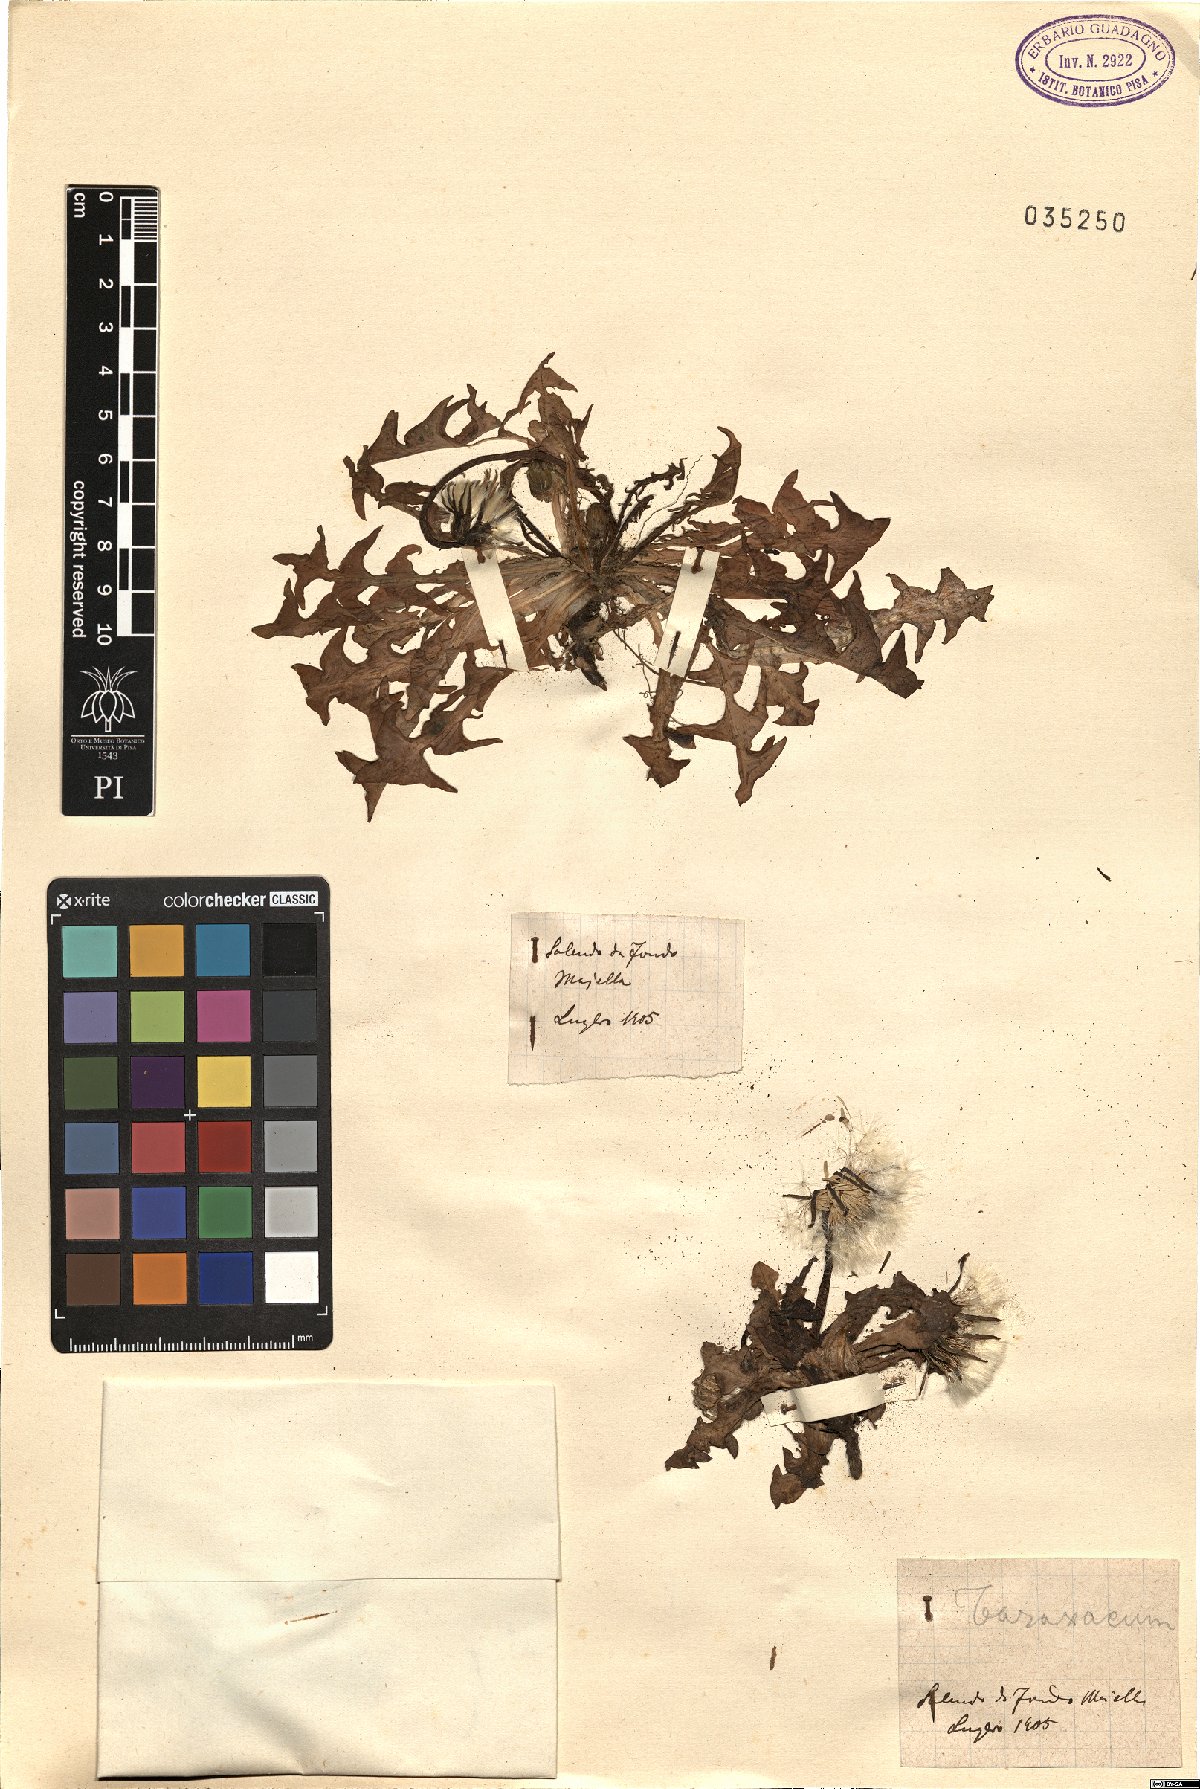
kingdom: Plantae
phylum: Tracheophyta
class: Magnoliopsida
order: Asterales
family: Asteraceae
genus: Taraxacum
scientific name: Taraxacum
